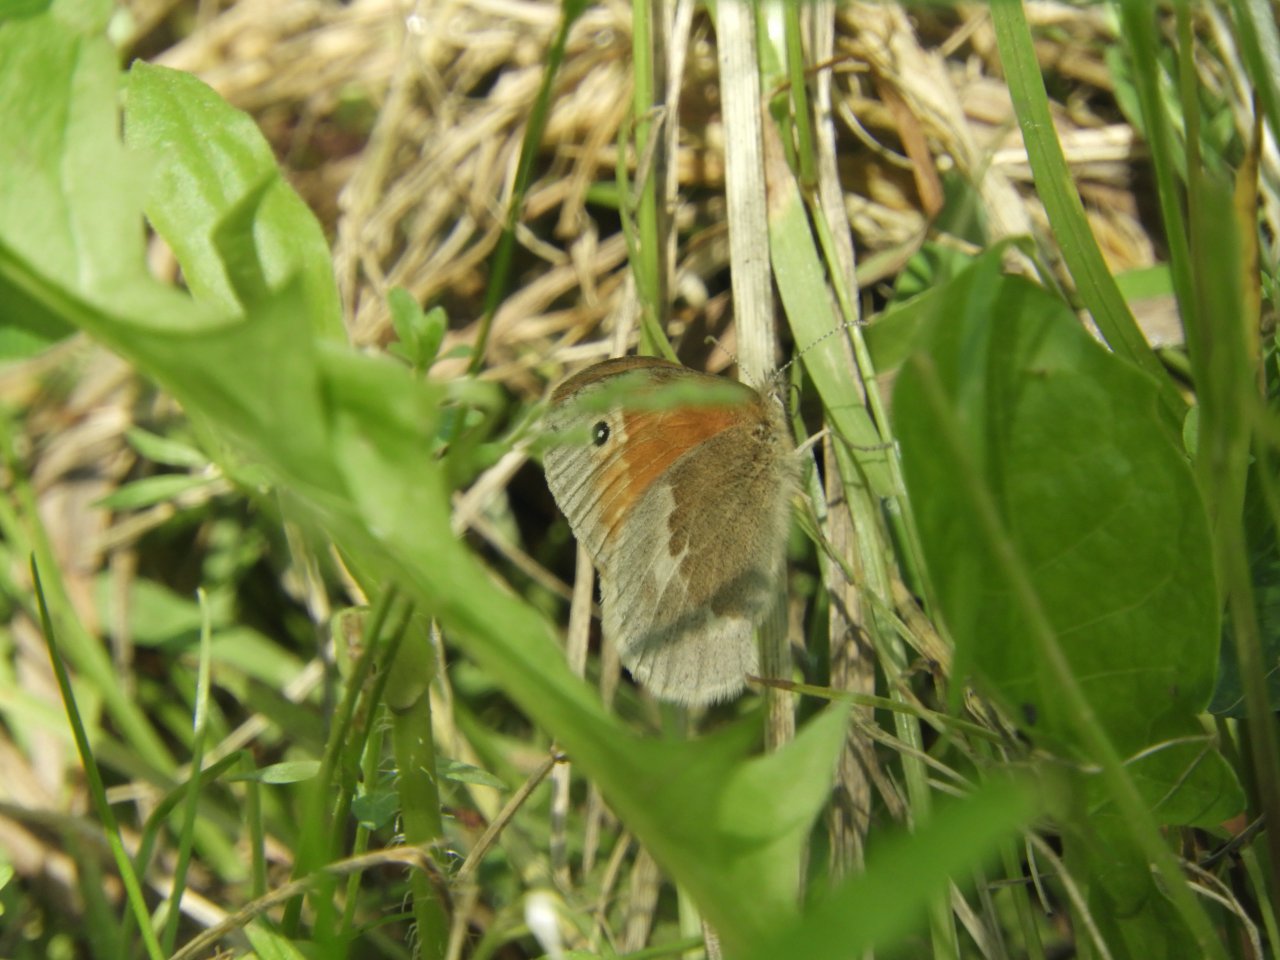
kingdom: Animalia
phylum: Arthropoda
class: Insecta
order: Lepidoptera
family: Nymphalidae
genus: Coenonympha
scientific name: Coenonympha tullia
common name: Large Heath
